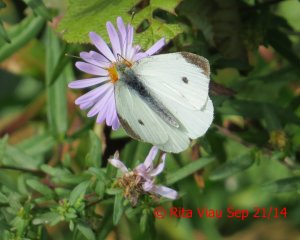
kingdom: Animalia
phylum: Arthropoda
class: Insecta
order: Lepidoptera
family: Pieridae
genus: Pieris
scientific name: Pieris rapae
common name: Cabbage White
